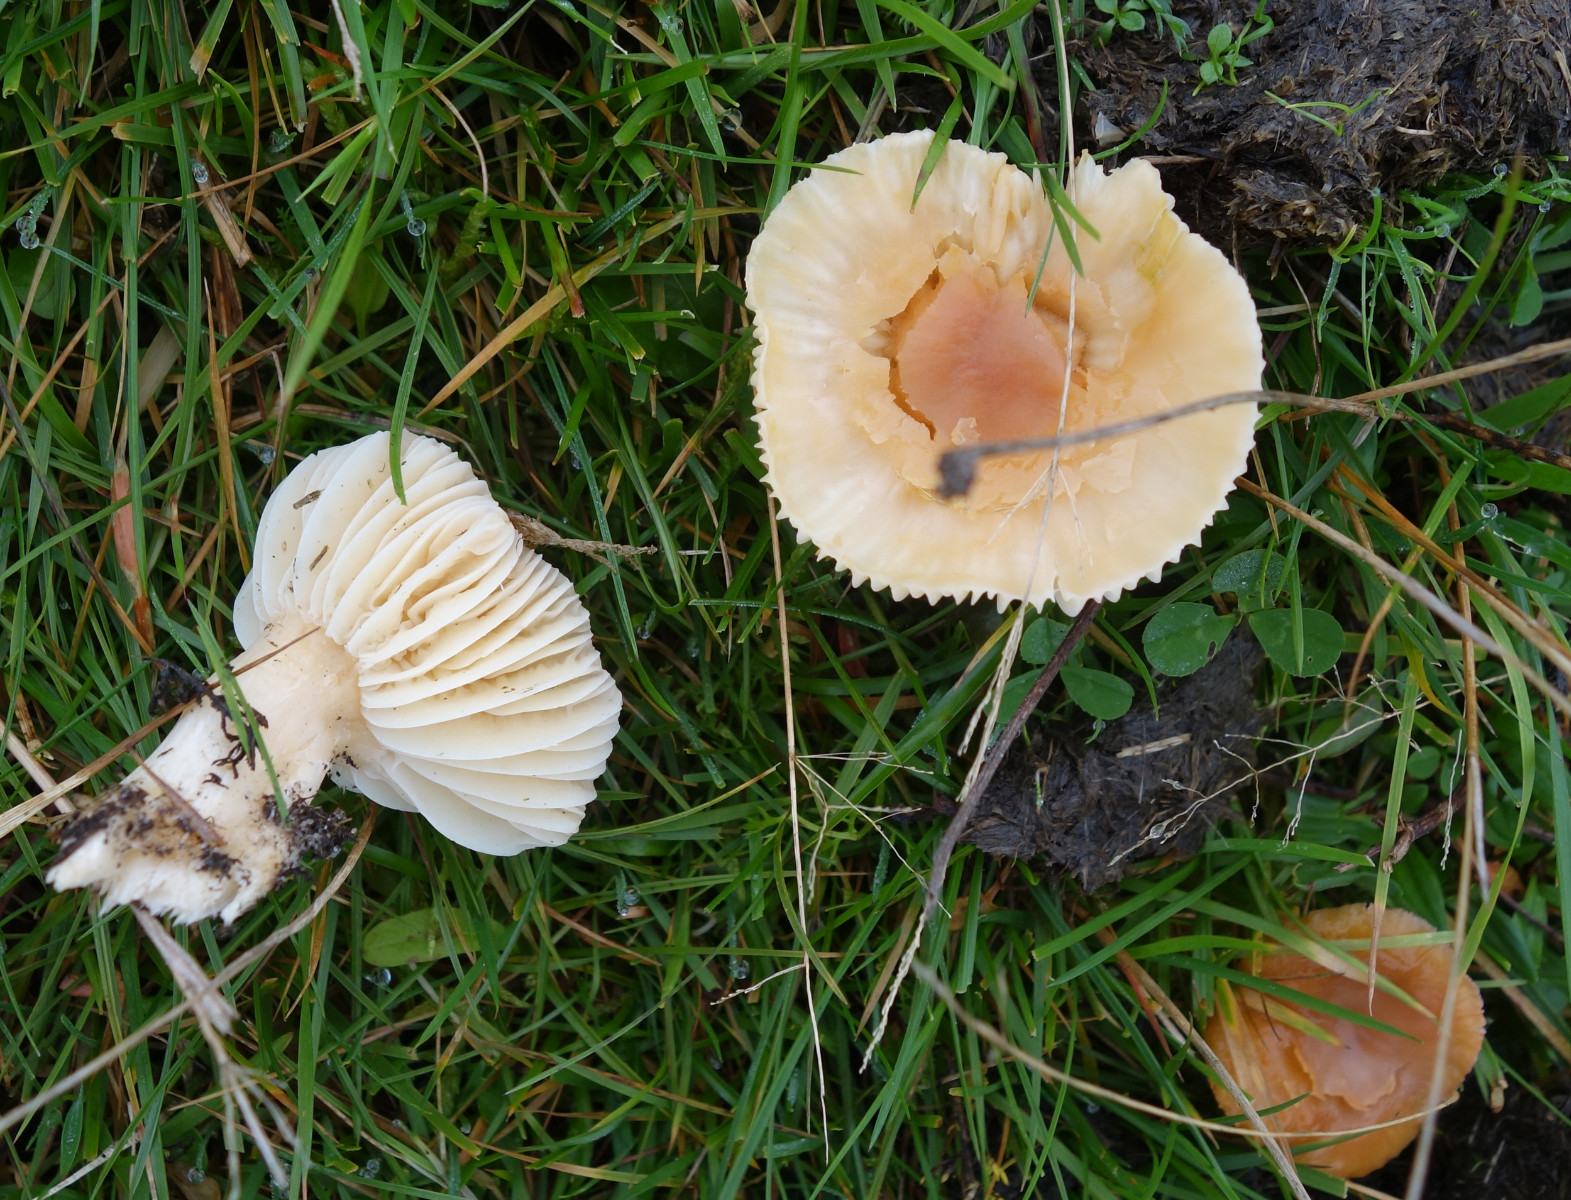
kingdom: Fungi
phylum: Basidiomycota
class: Agaricomycetes
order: Agaricales
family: Hygrophoraceae
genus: Cuphophyllus
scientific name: Cuphophyllus pratensis
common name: eng-vokshat
